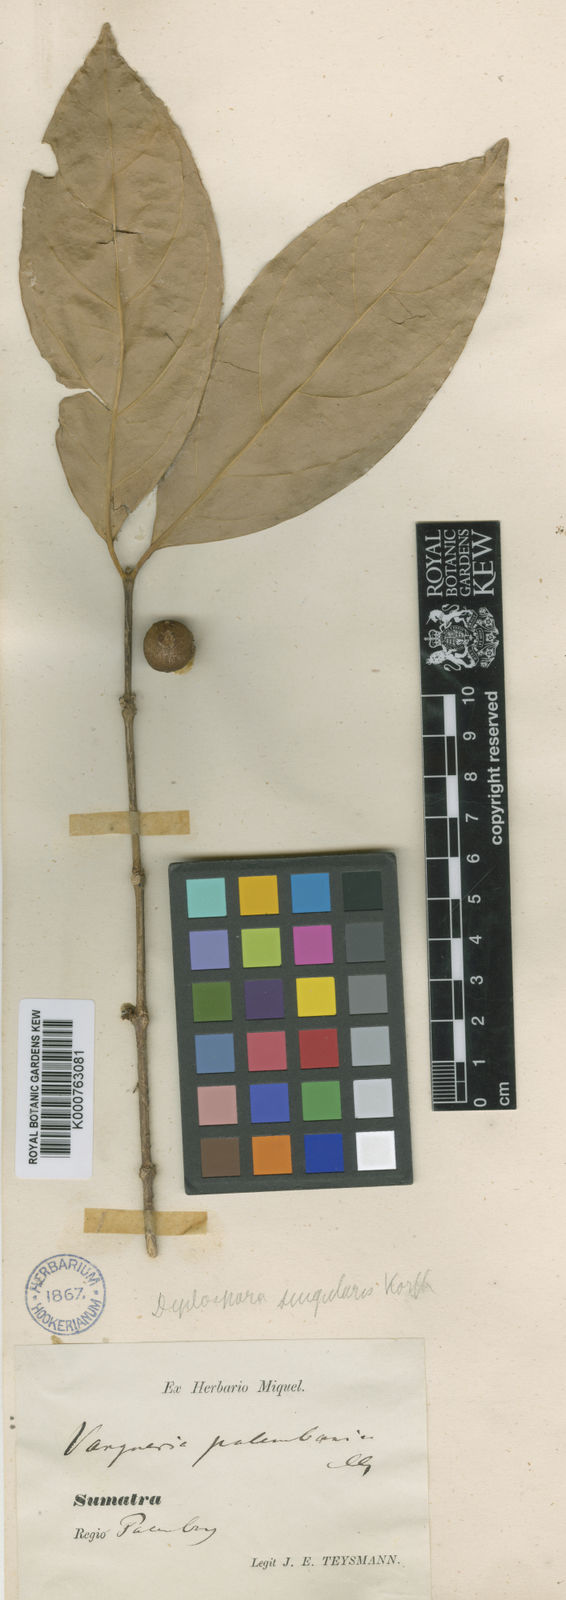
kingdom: Plantae
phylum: Tracheophyta
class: Magnoliopsida
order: Gentianales
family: Rubiaceae
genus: Discospermum
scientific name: Discospermum abnorme
